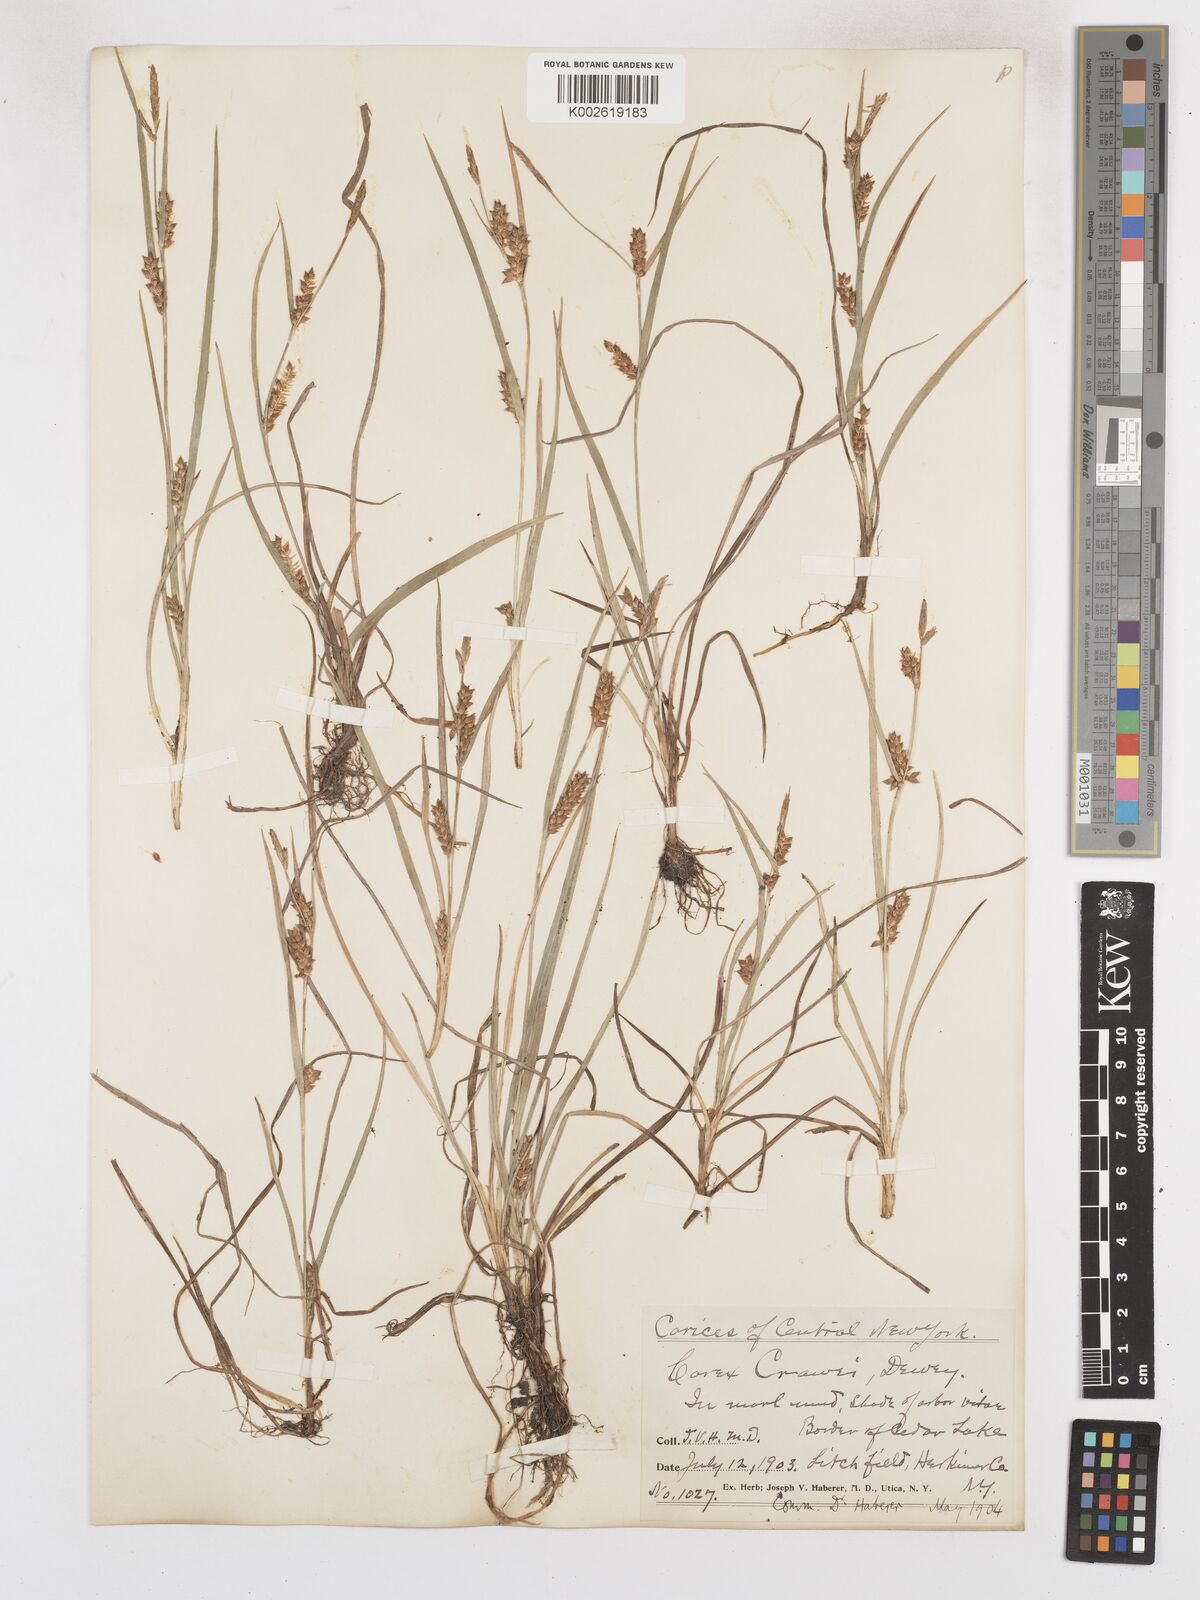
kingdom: Plantae
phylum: Tracheophyta
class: Liliopsida
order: Poales
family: Cyperaceae
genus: Carex
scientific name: Carex crawei
